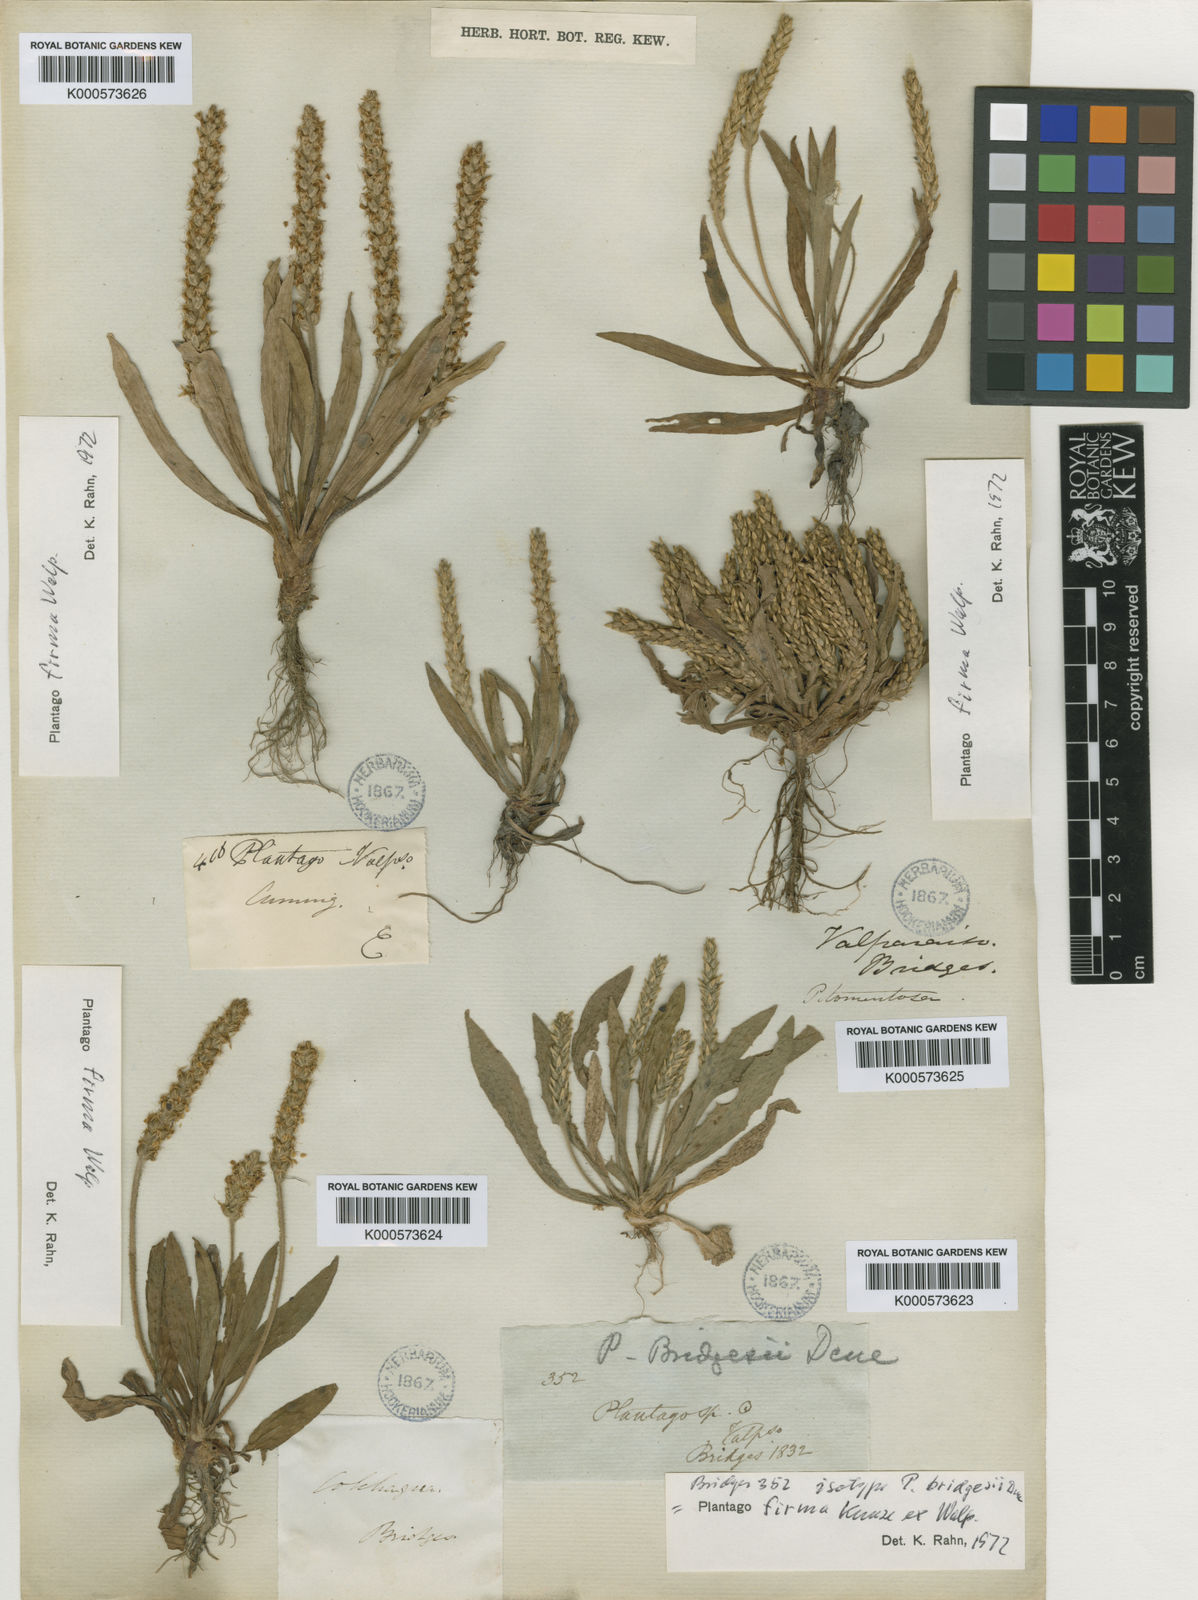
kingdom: Plantae
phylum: Tracheophyta
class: Magnoliopsida
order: Lamiales
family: Plantaginaceae
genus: Plantago
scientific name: Plantago firma
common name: Chilean plantain
